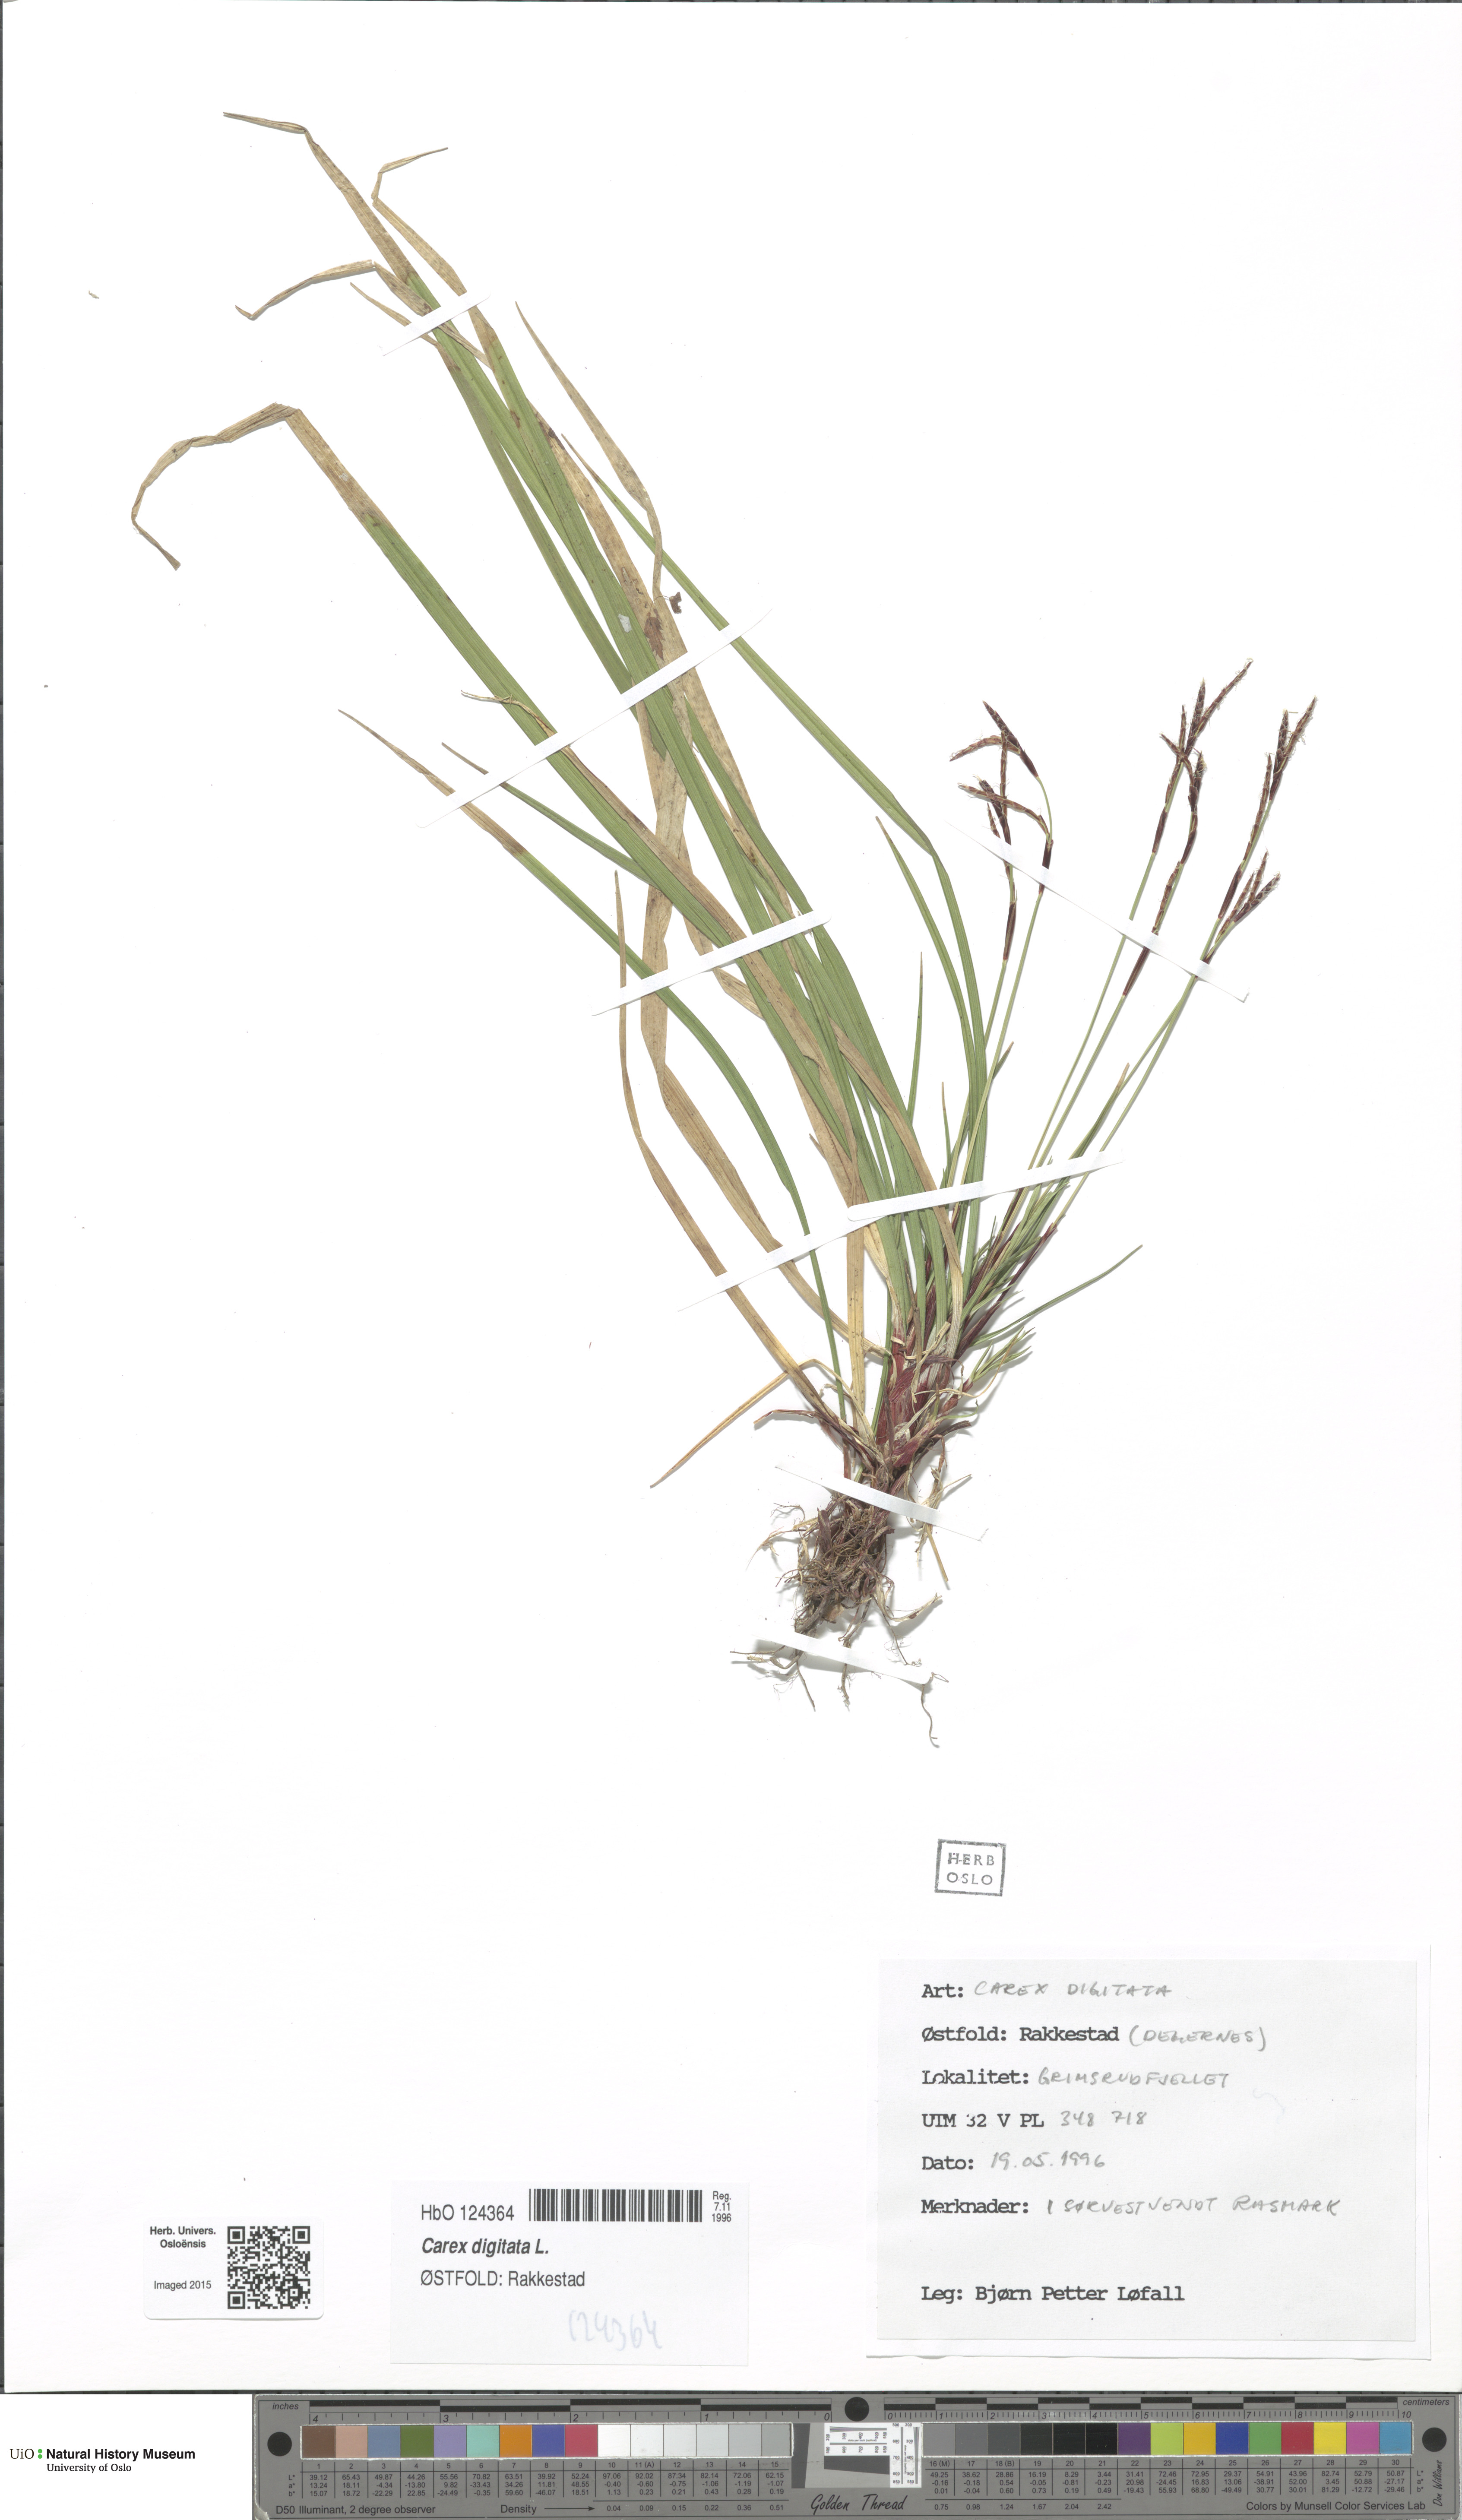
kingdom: Plantae
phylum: Tracheophyta
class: Liliopsida
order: Poales
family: Cyperaceae
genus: Carex
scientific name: Carex digitata
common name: Fingered sedge
